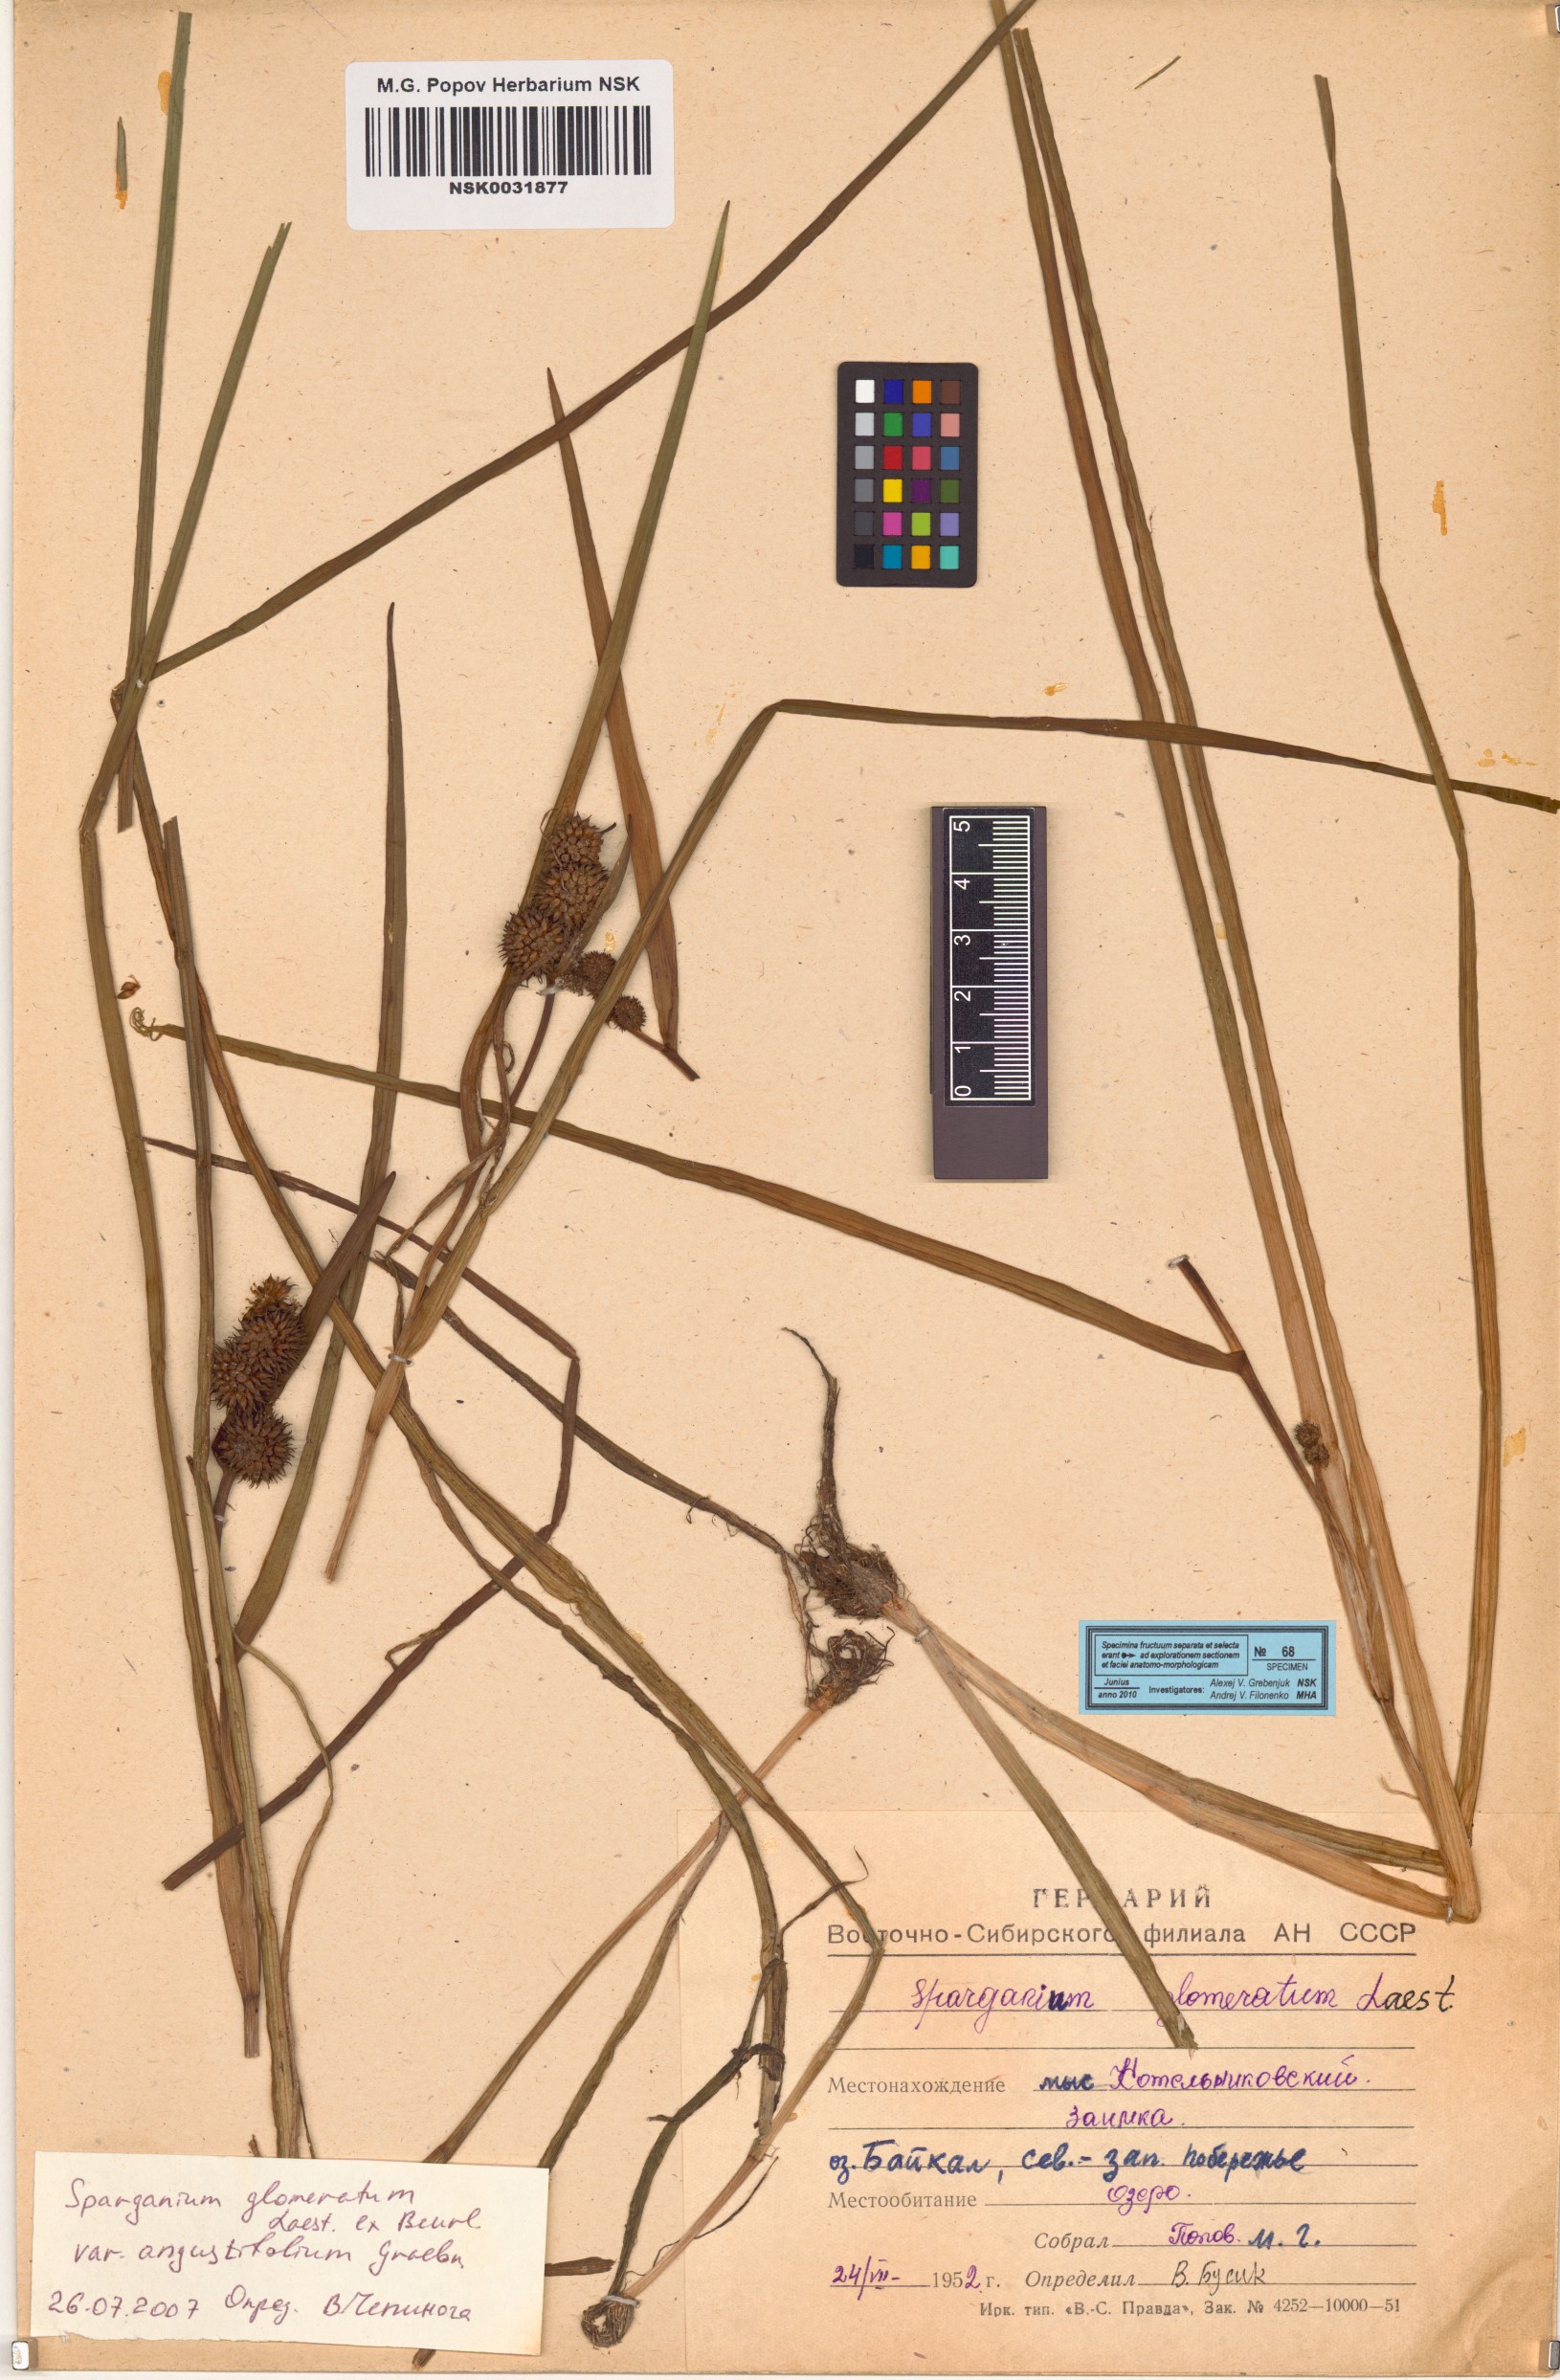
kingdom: Plantae
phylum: Tracheophyta
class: Liliopsida
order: Poales
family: Typhaceae
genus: Sparganium
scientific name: Sparganium glomeratum
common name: Clustered burreed
